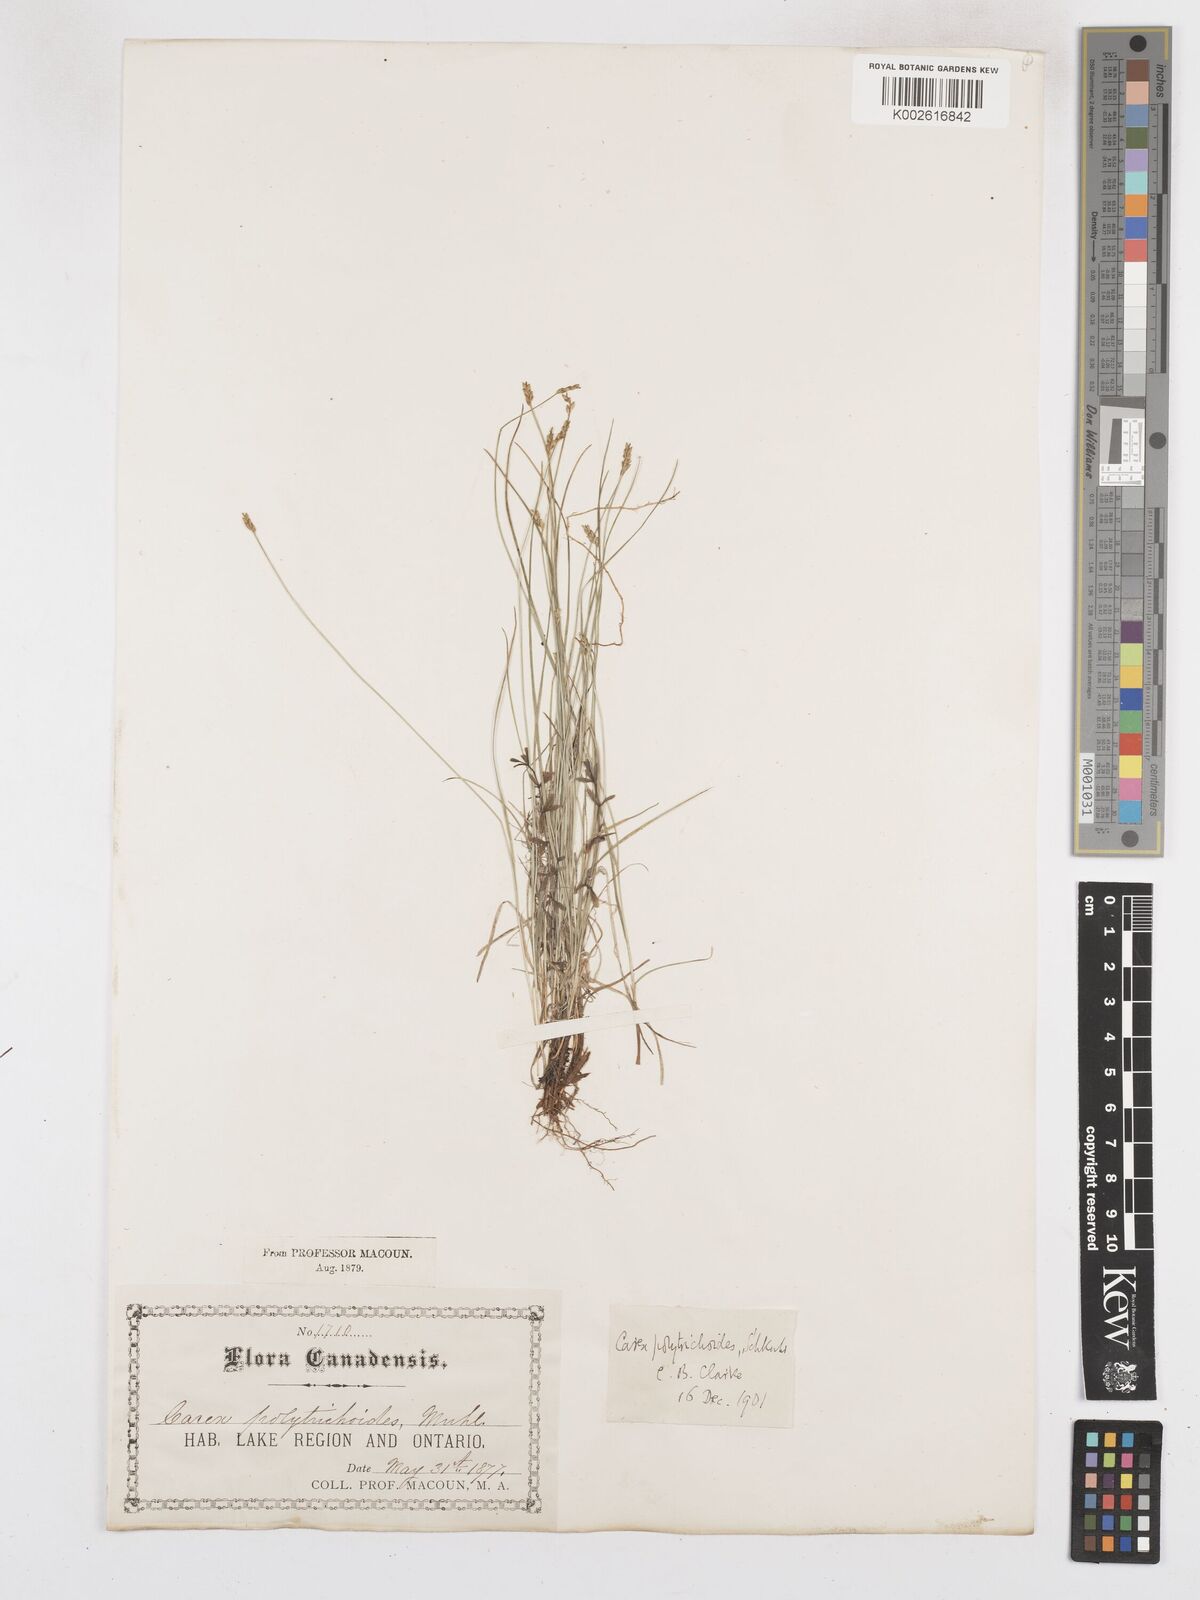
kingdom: Plantae
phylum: Tracheophyta
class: Liliopsida
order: Poales
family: Cyperaceae
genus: Carex
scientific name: Carex leptalea
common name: Bristly-stalked sedge
